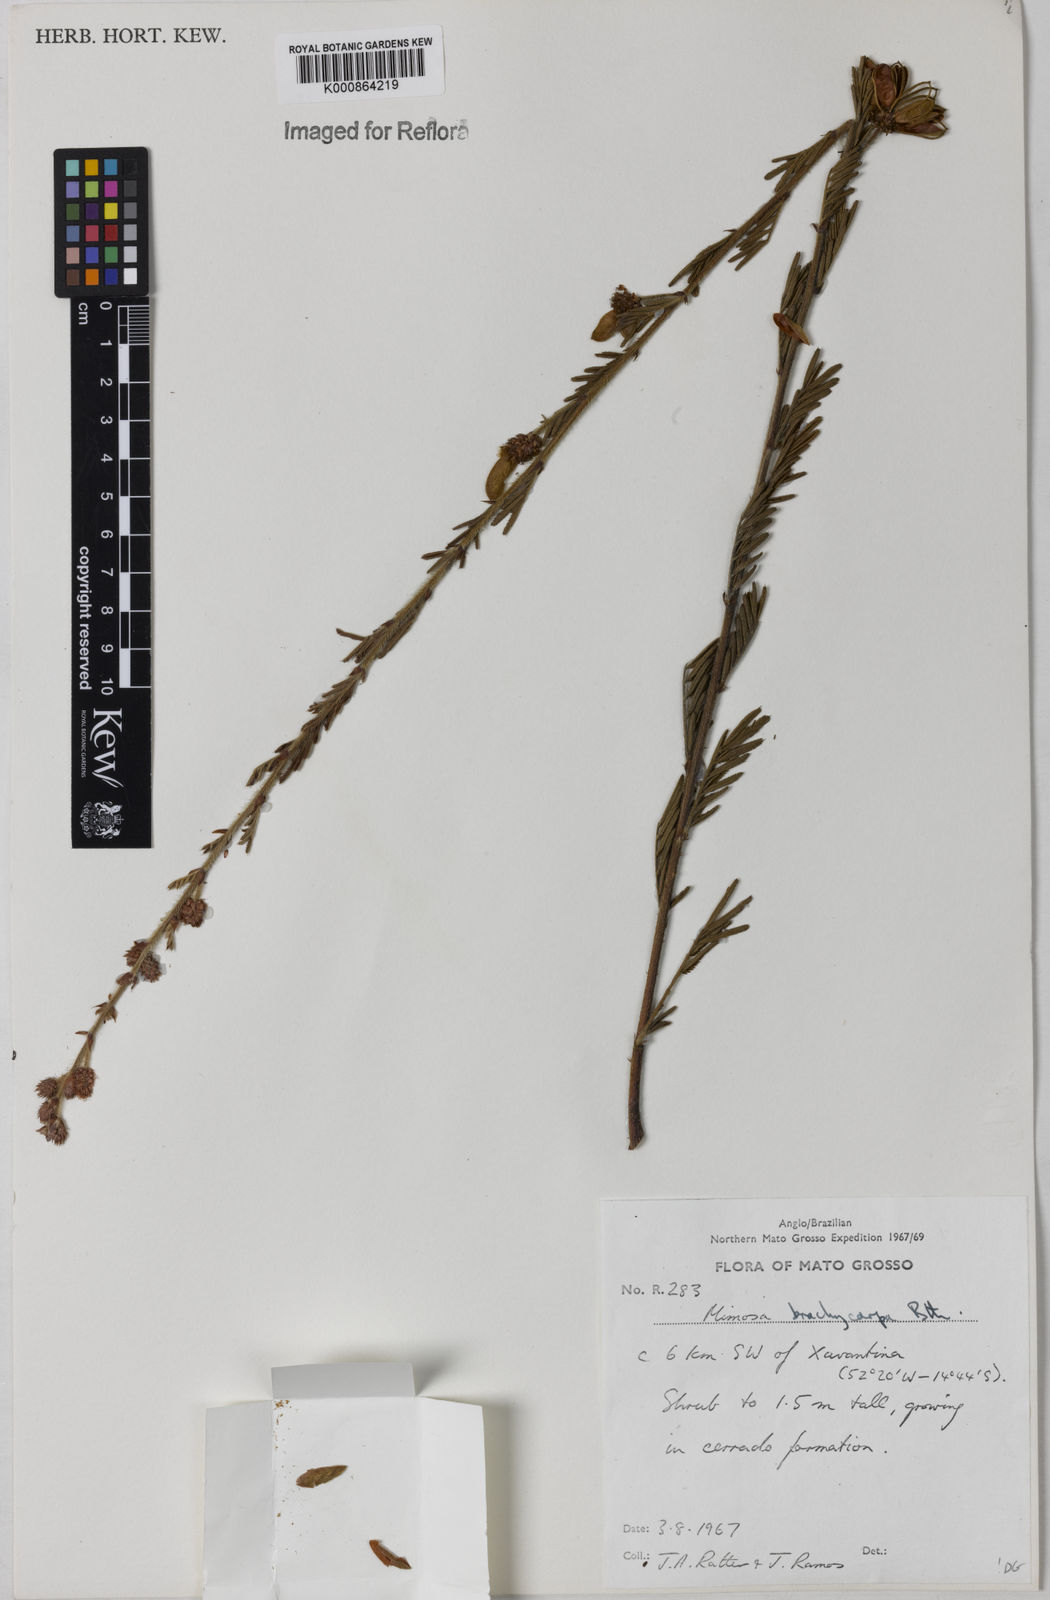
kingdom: Plantae
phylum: Tracheophyta
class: Magnoliopsida
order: Fabales
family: Fabaceae
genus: Mimosa
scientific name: Mimosa brachycarpa
